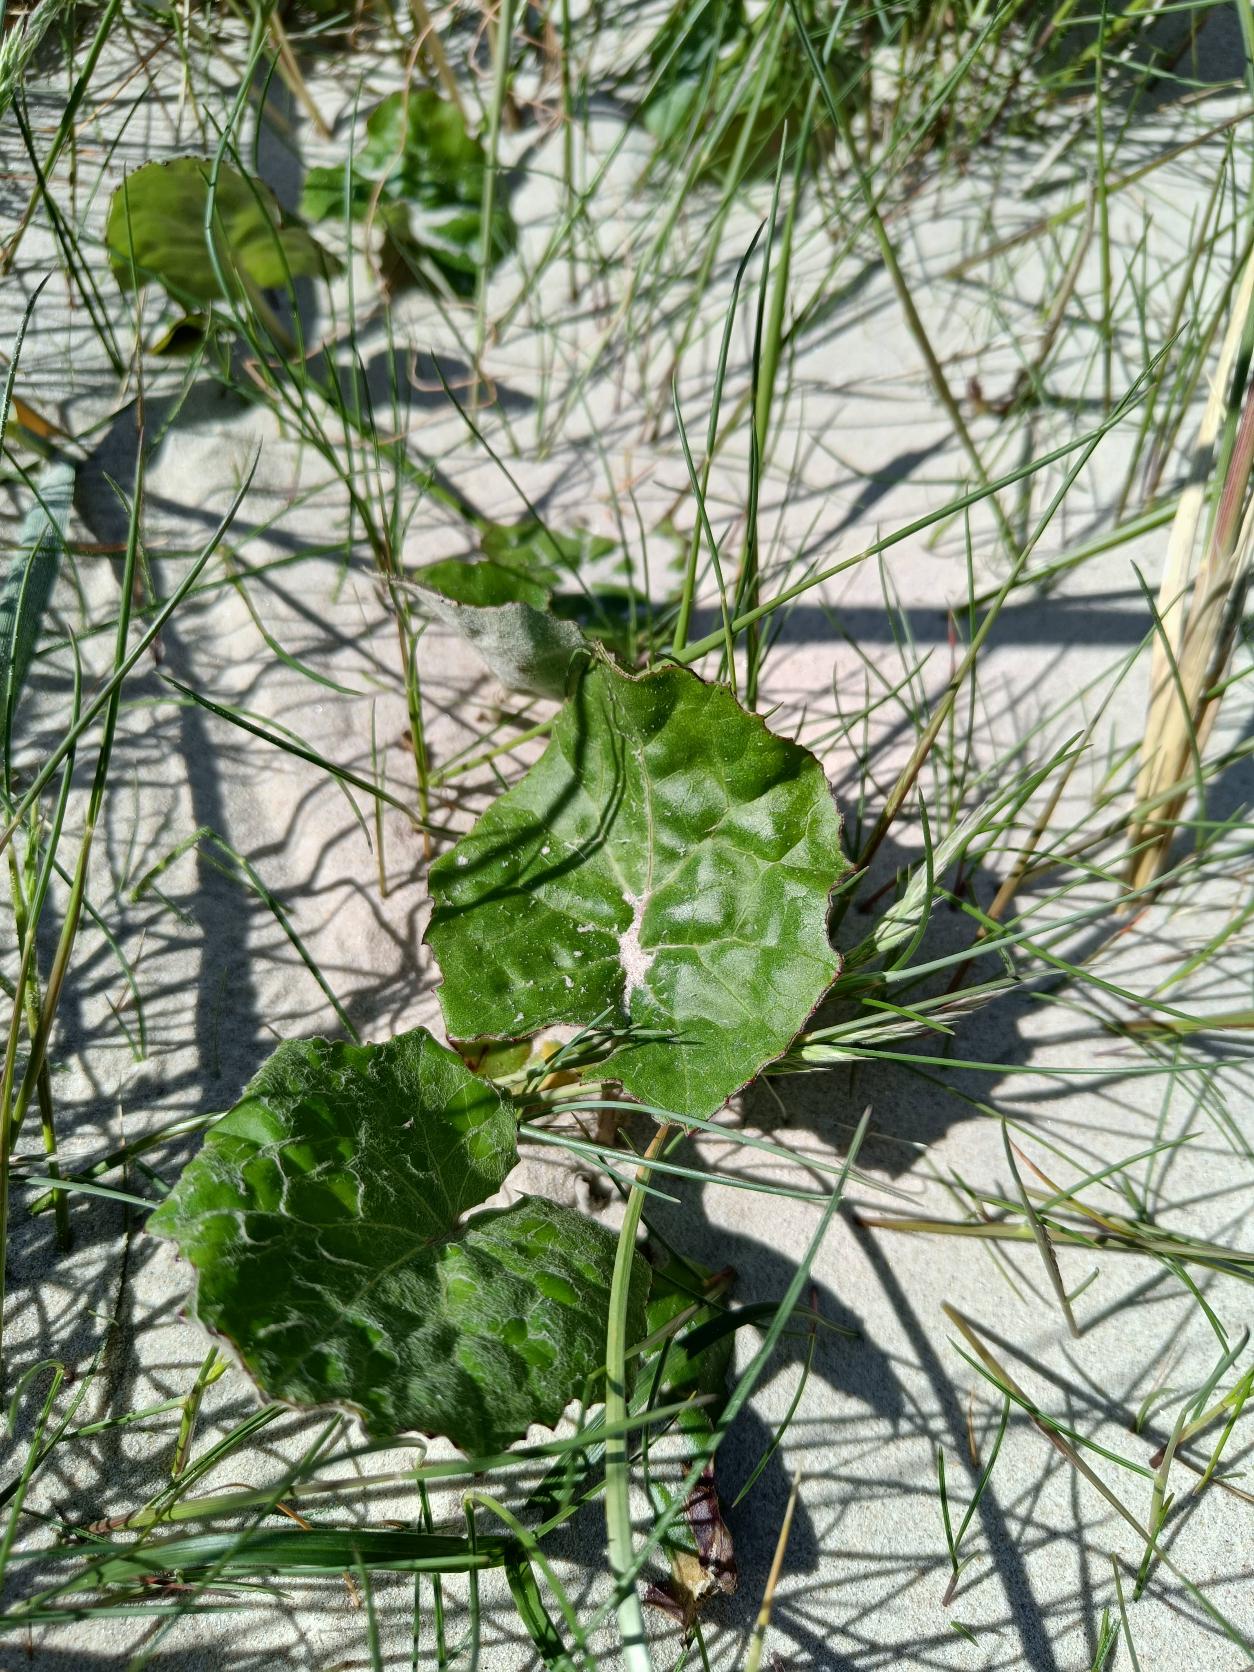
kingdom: Plantae
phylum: Tracheophyta
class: Magnoliopsida
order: Asterales
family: Asteraceae
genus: Tussilago
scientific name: Tussilago farfara
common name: Følfod
